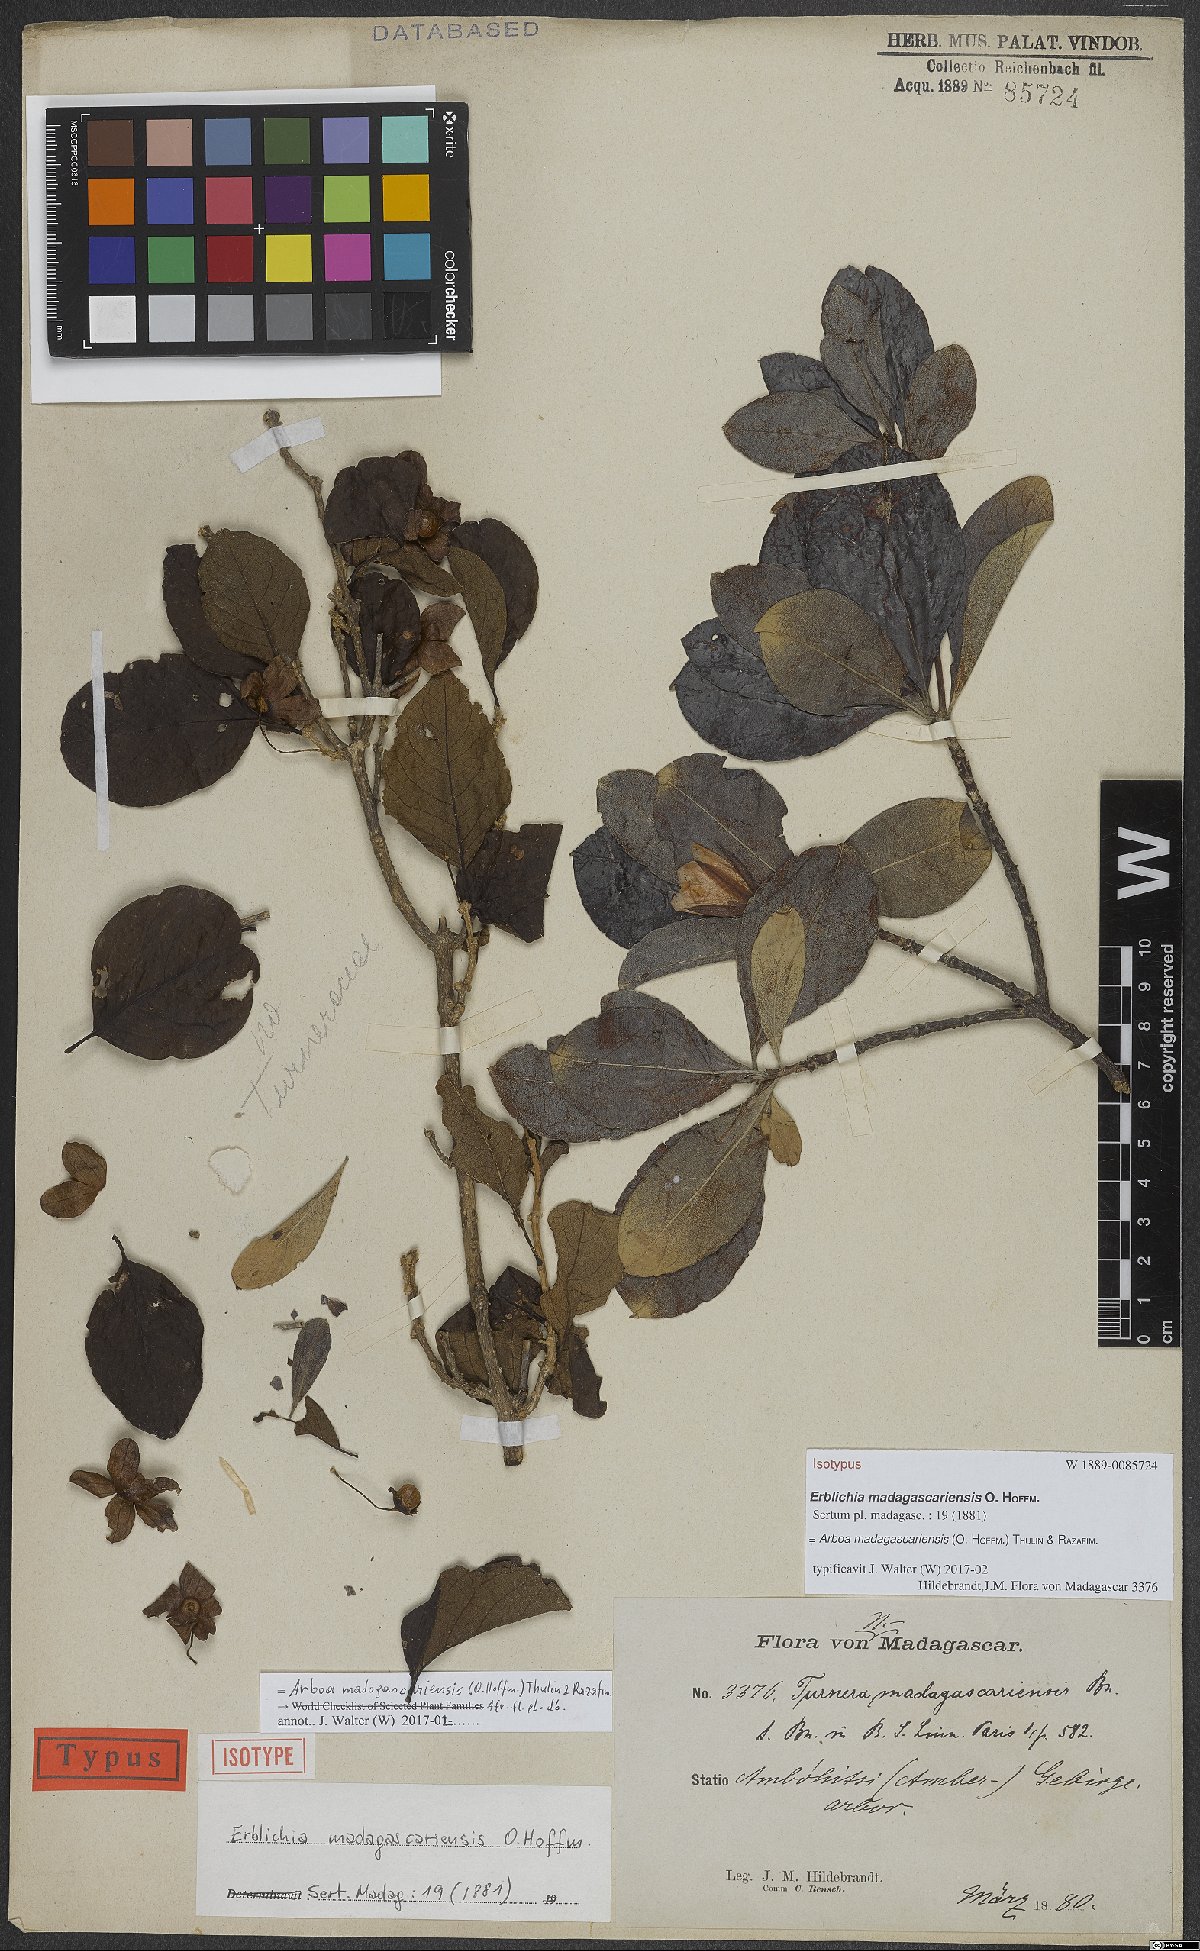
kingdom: Plantae
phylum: Tracheophyta
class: Magnoliopsida
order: Malpighiales
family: Turneraceae
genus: Arboa
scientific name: Arboa madagascariensis
